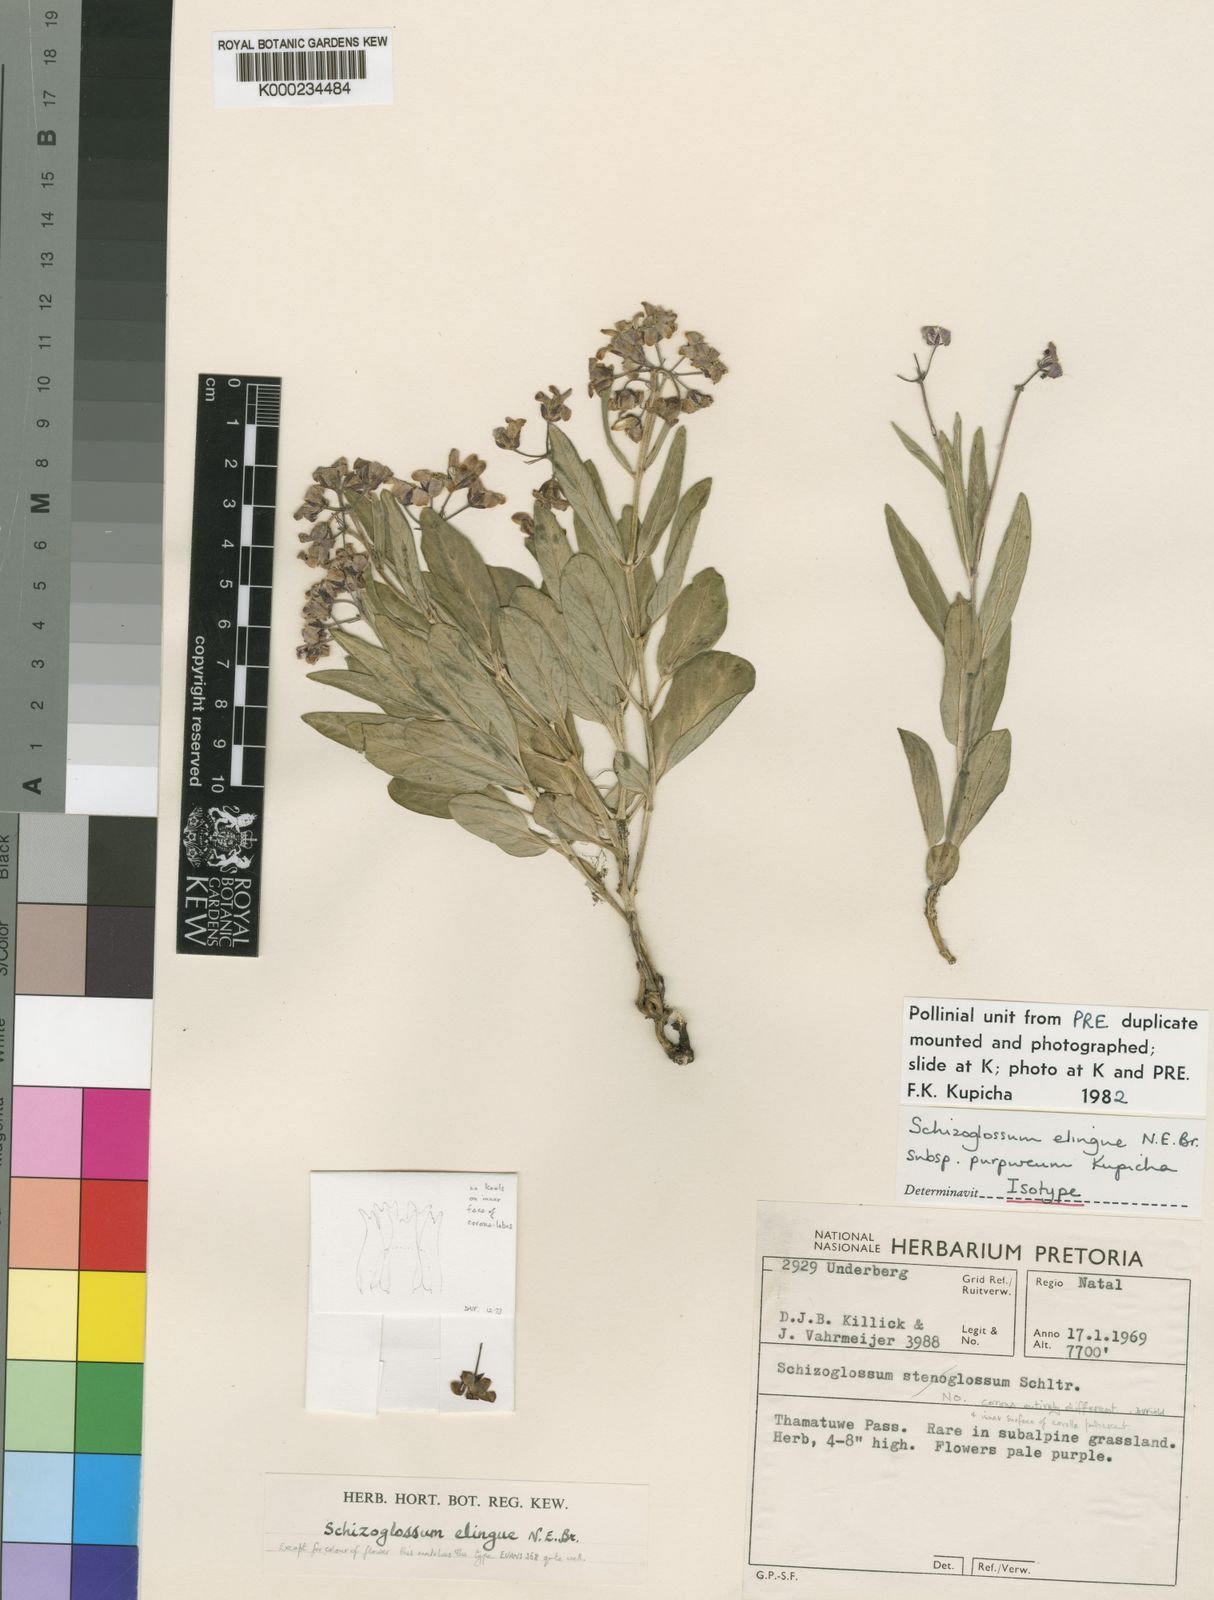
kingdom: Plantae
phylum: Tracheophyta
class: Magnoliopsida
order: Gentianales
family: Apocynaceae
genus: Schizoglossum
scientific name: Schizoglossum elingue
